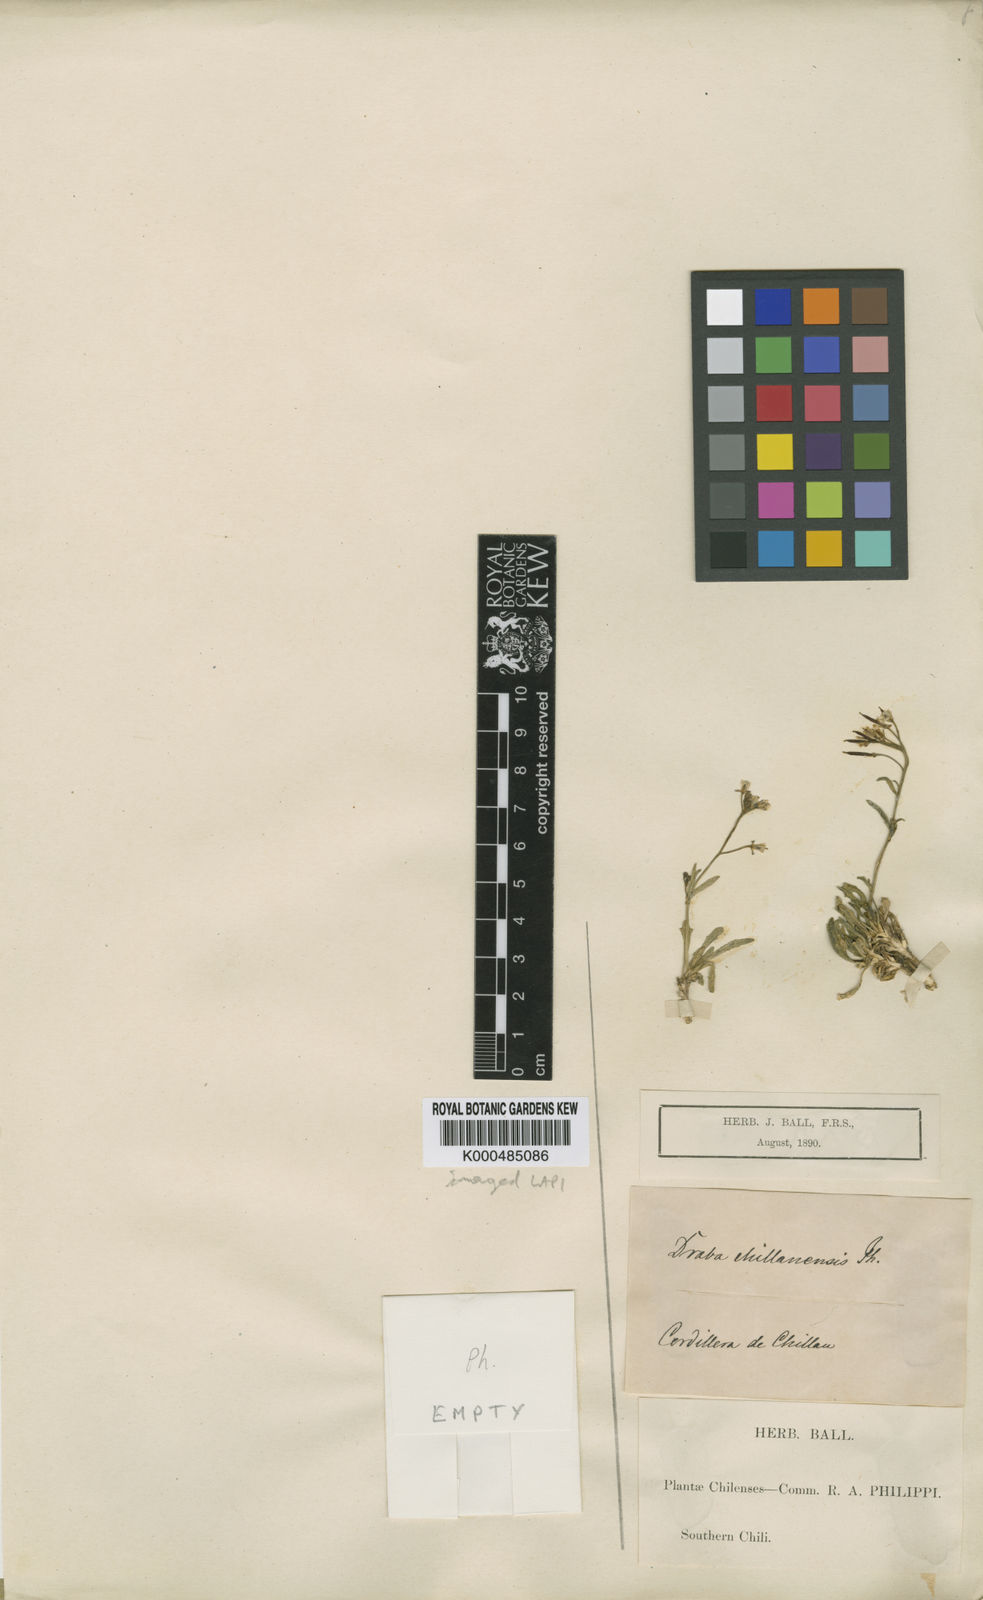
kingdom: Plantae
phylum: Tracheophyta
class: Magnoliopsida
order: Brassicales
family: Brassicaceae
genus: Stenodraba
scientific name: Stenodraba chillanensis
